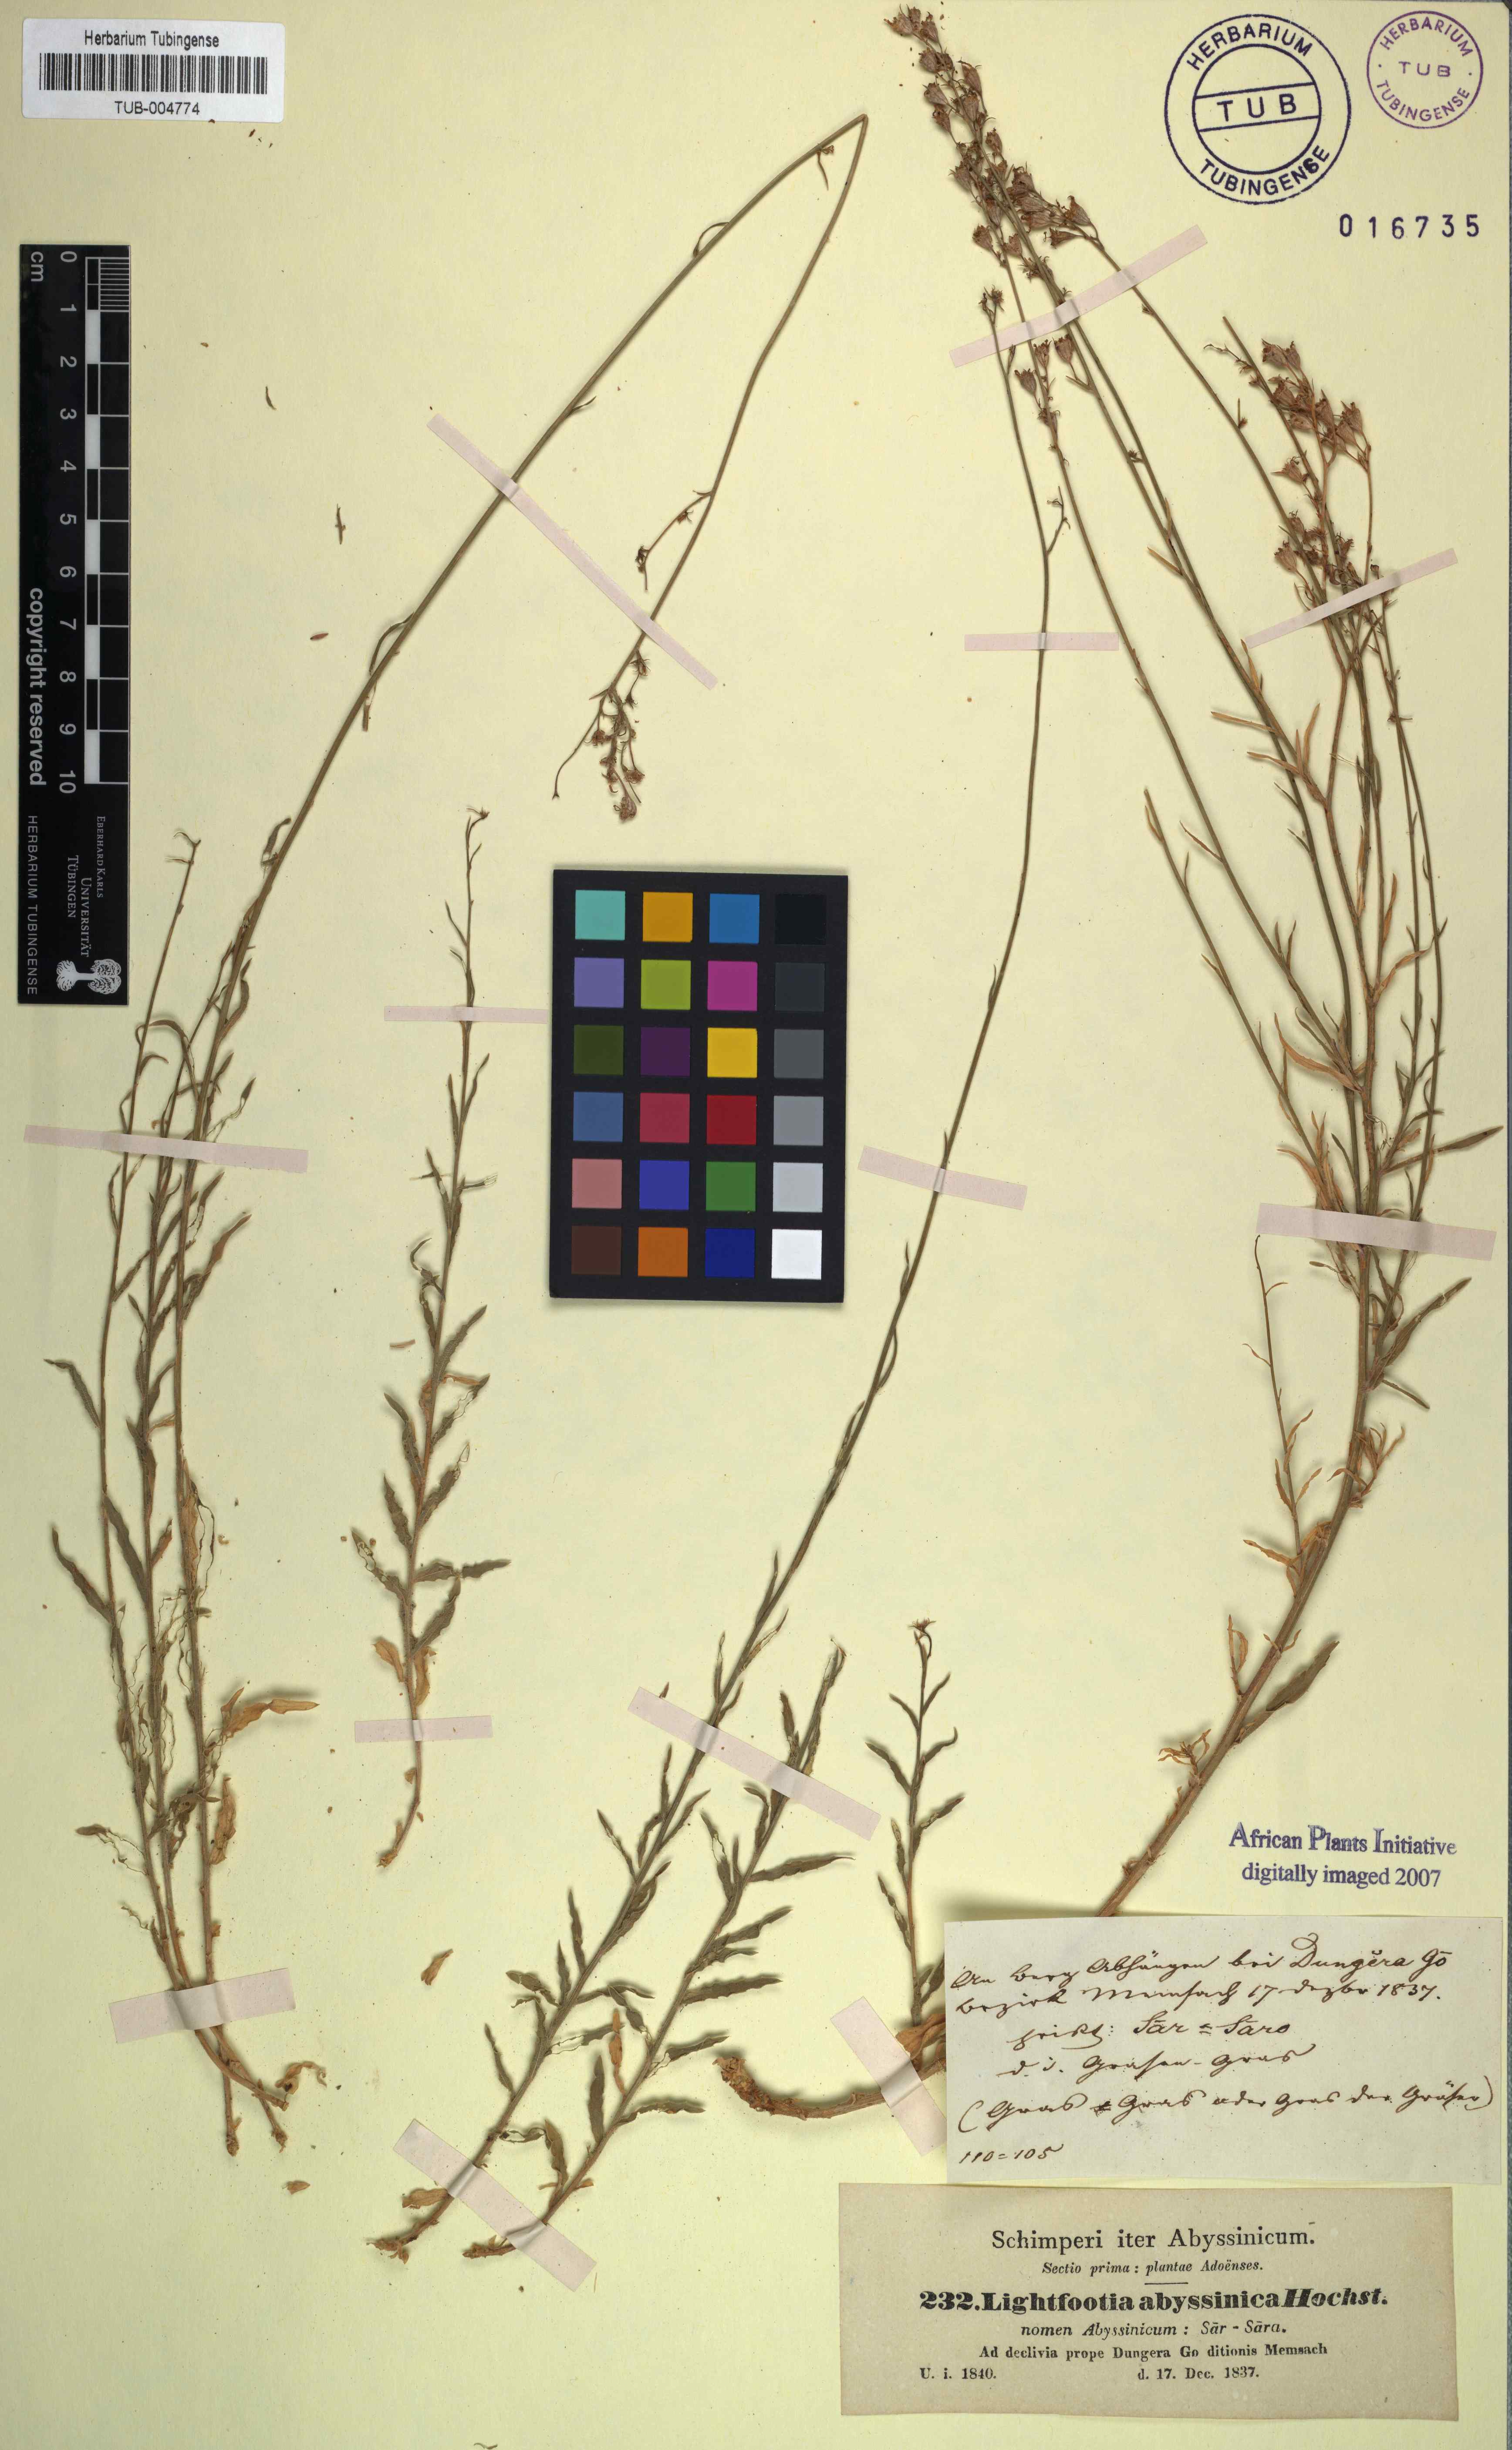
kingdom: Plantae
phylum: Tracheophyta
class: Magnoliopsida
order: Asterales
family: Campanulaceae
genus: Wahlenbergia
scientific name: Wahlenbergia abyssinica
